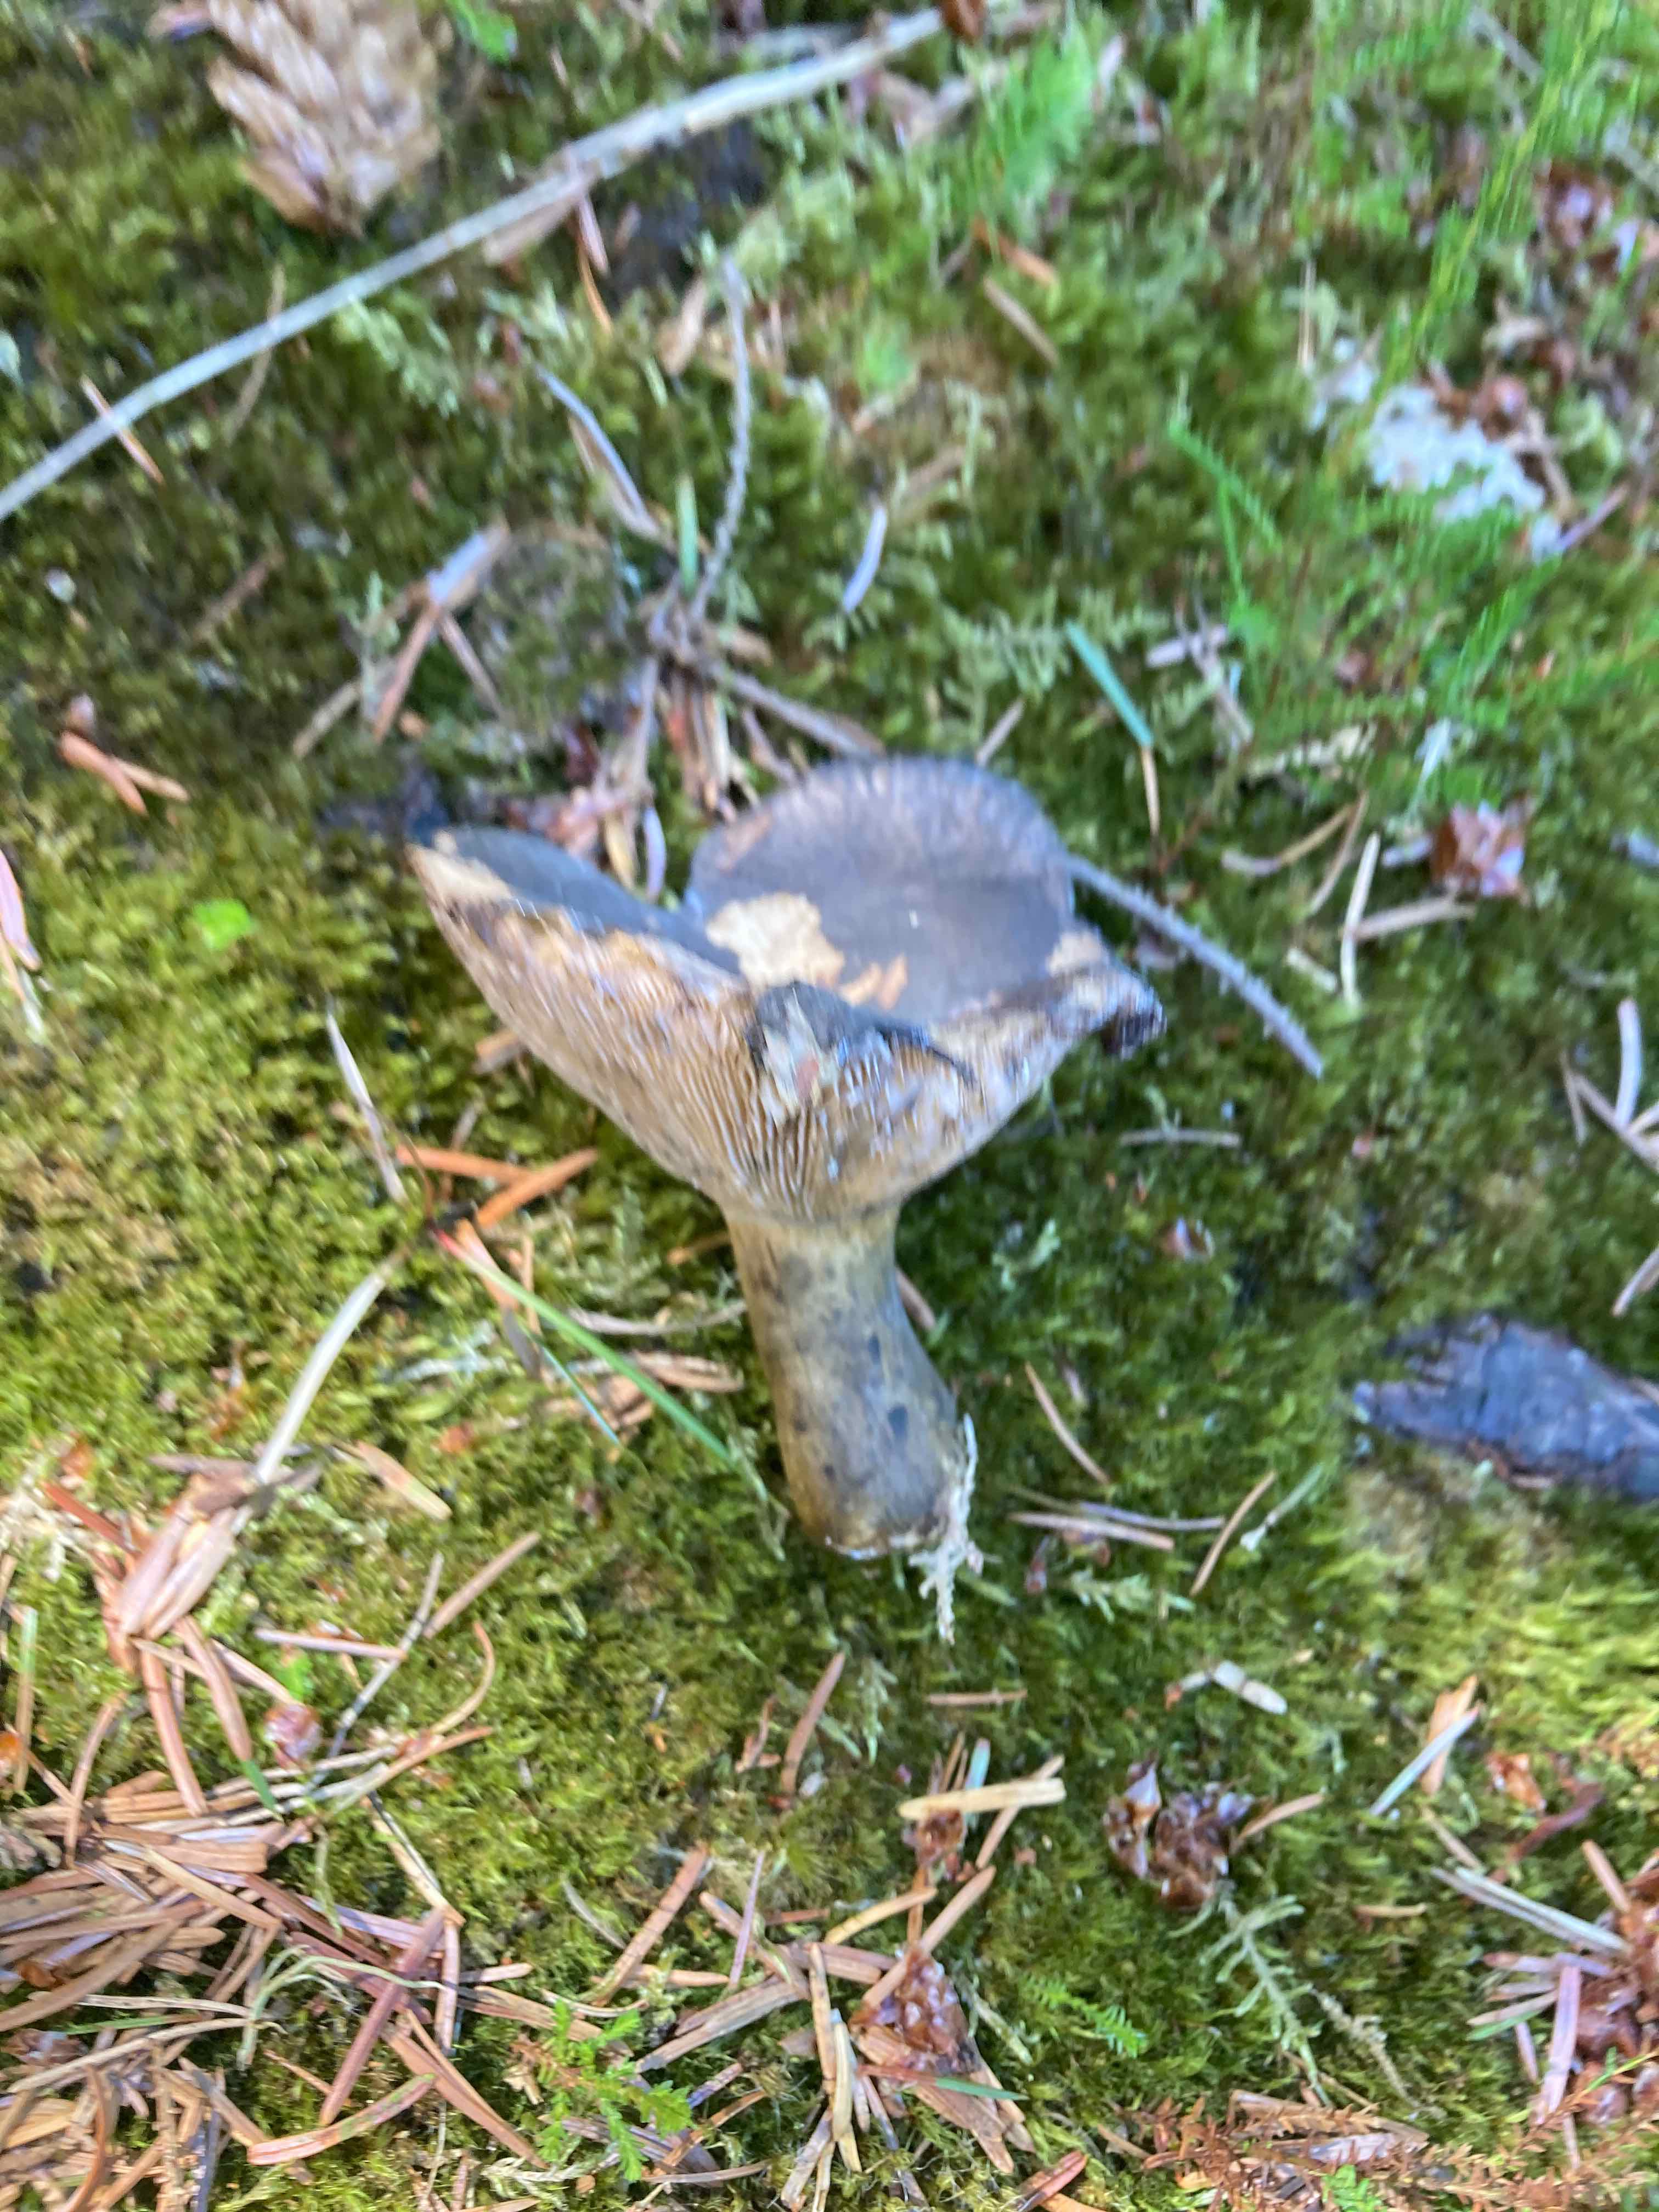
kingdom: Fungi
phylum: Basidiomycota
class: Agaricomycetes
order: Russulales
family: Russulaceae
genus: Lactarius
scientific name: Lactarius necator
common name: manddraber-mælkehat
